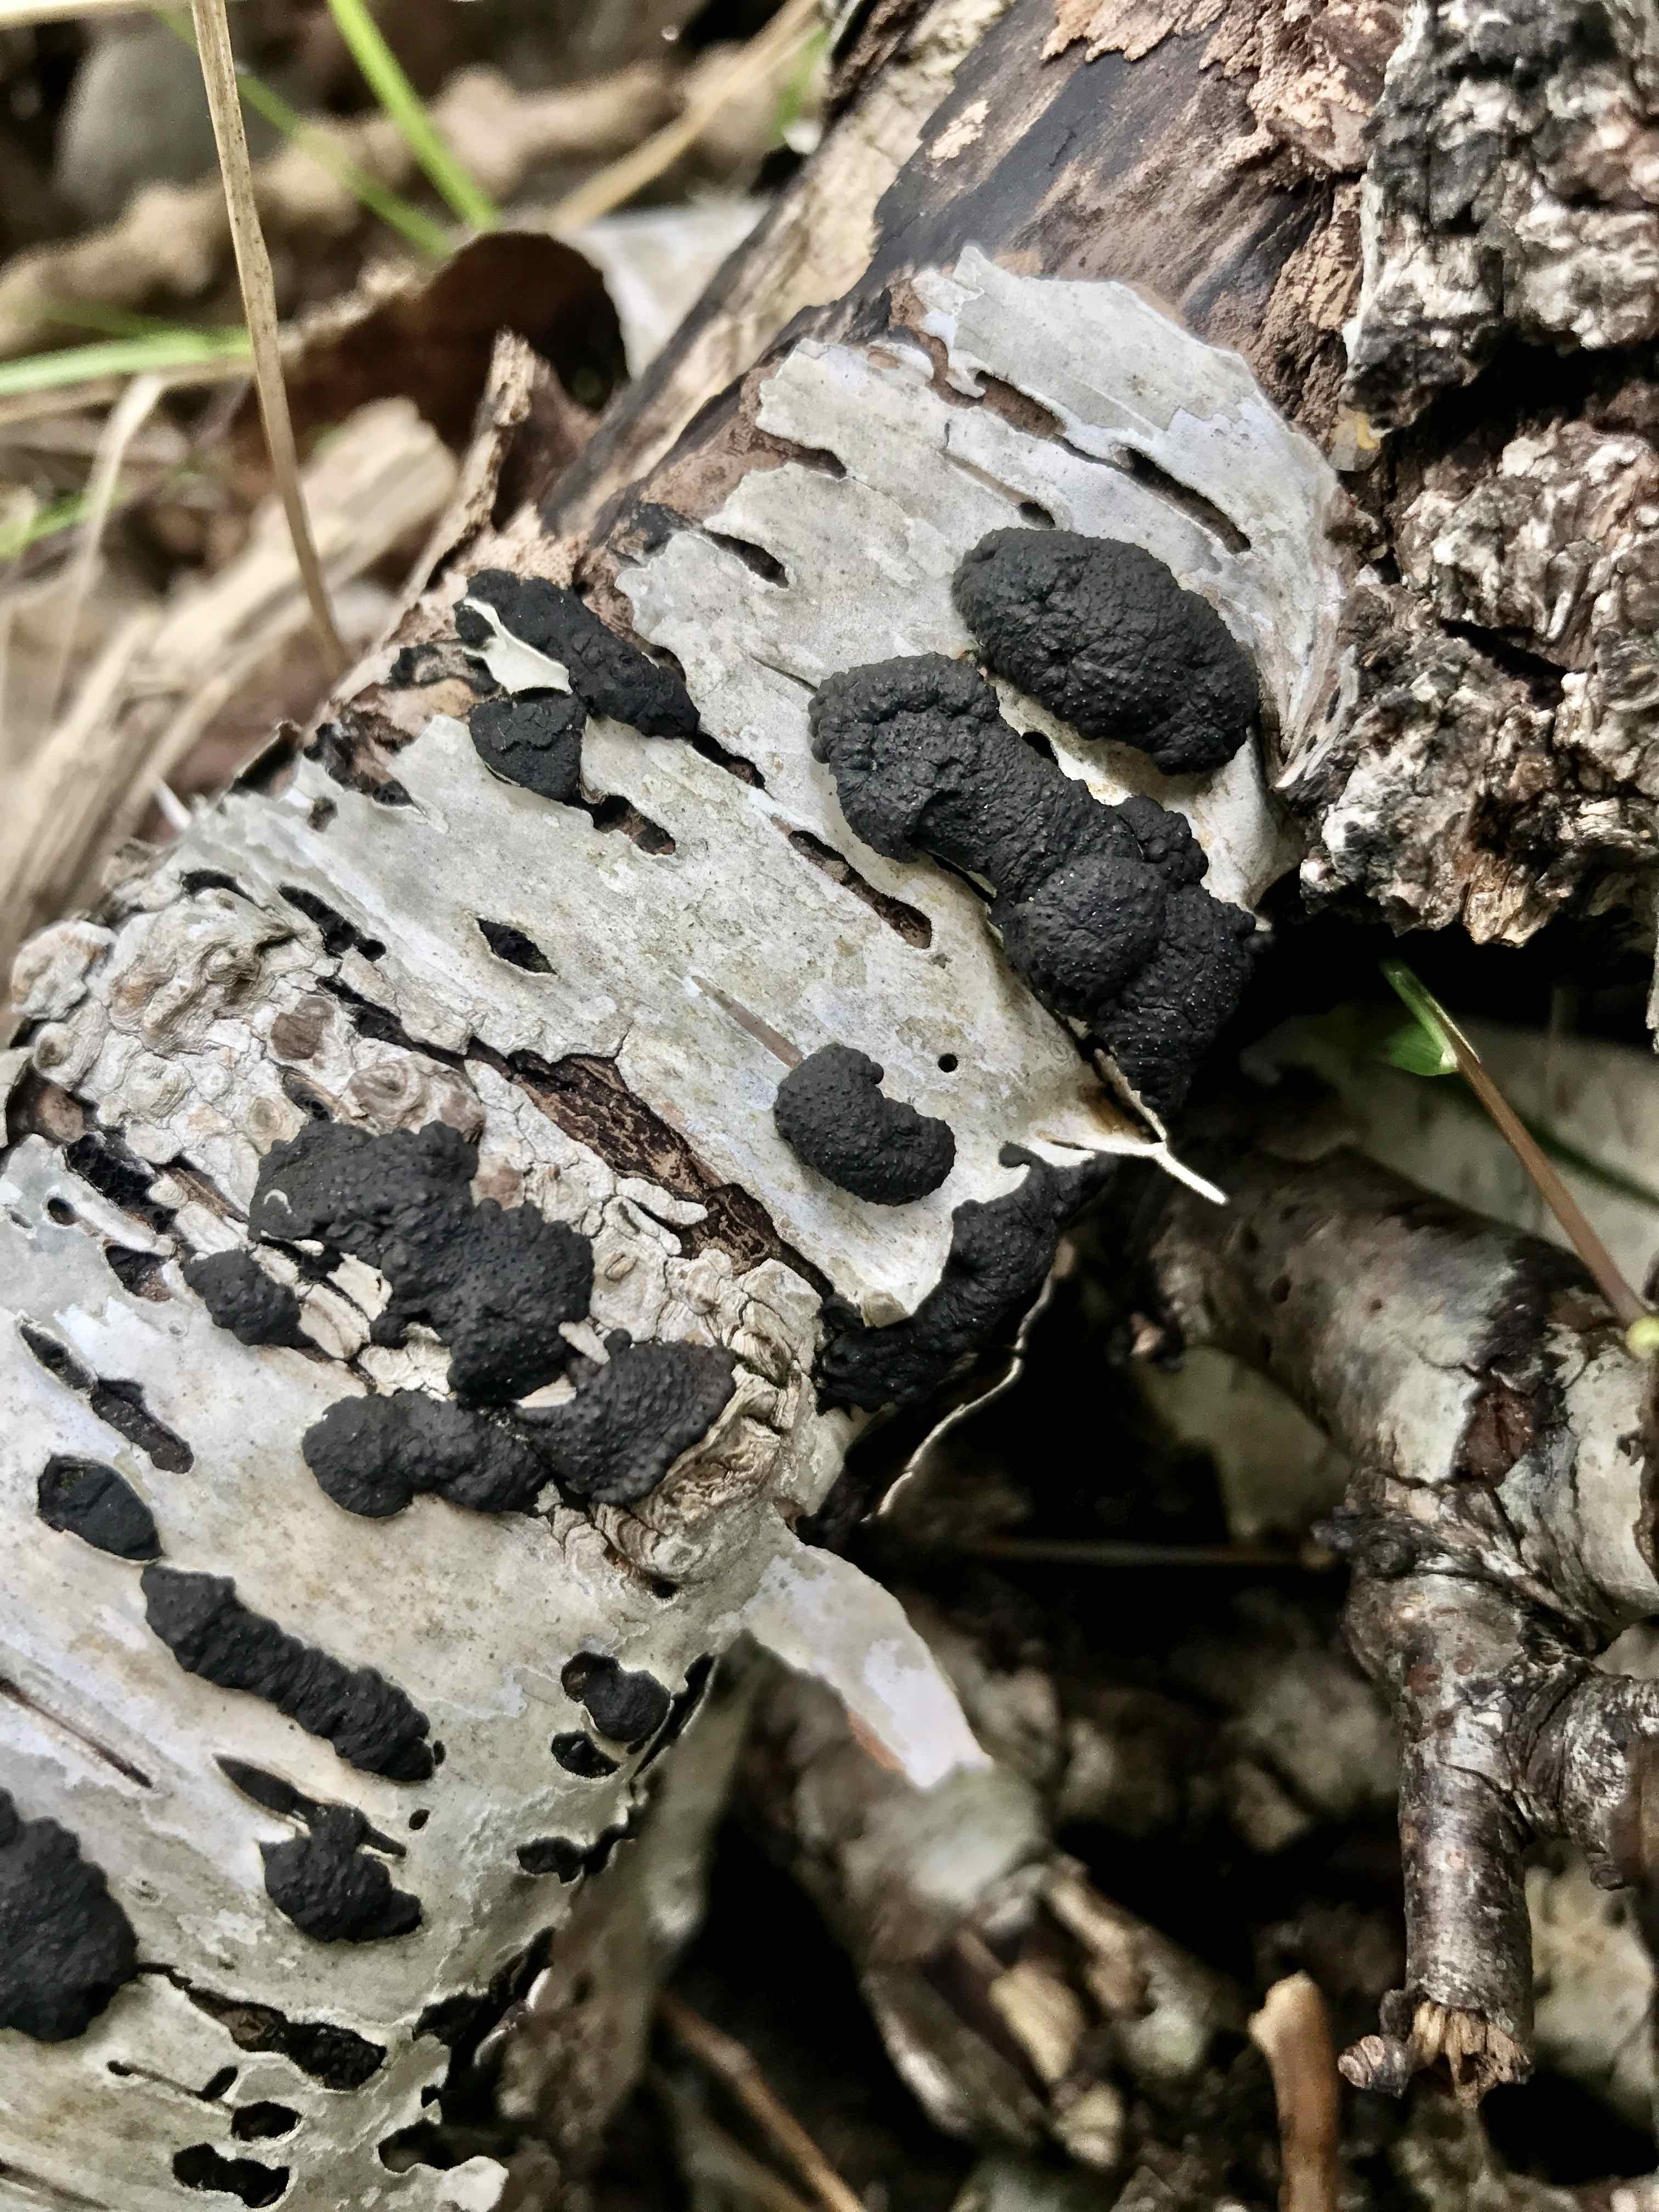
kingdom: Fungi
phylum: Ascomycota
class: Sordariomycetes
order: Xylariales
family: Hypoxylaceae
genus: Jackrogersella
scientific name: Jackrogersella multiformis
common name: foranderlig kulbær
